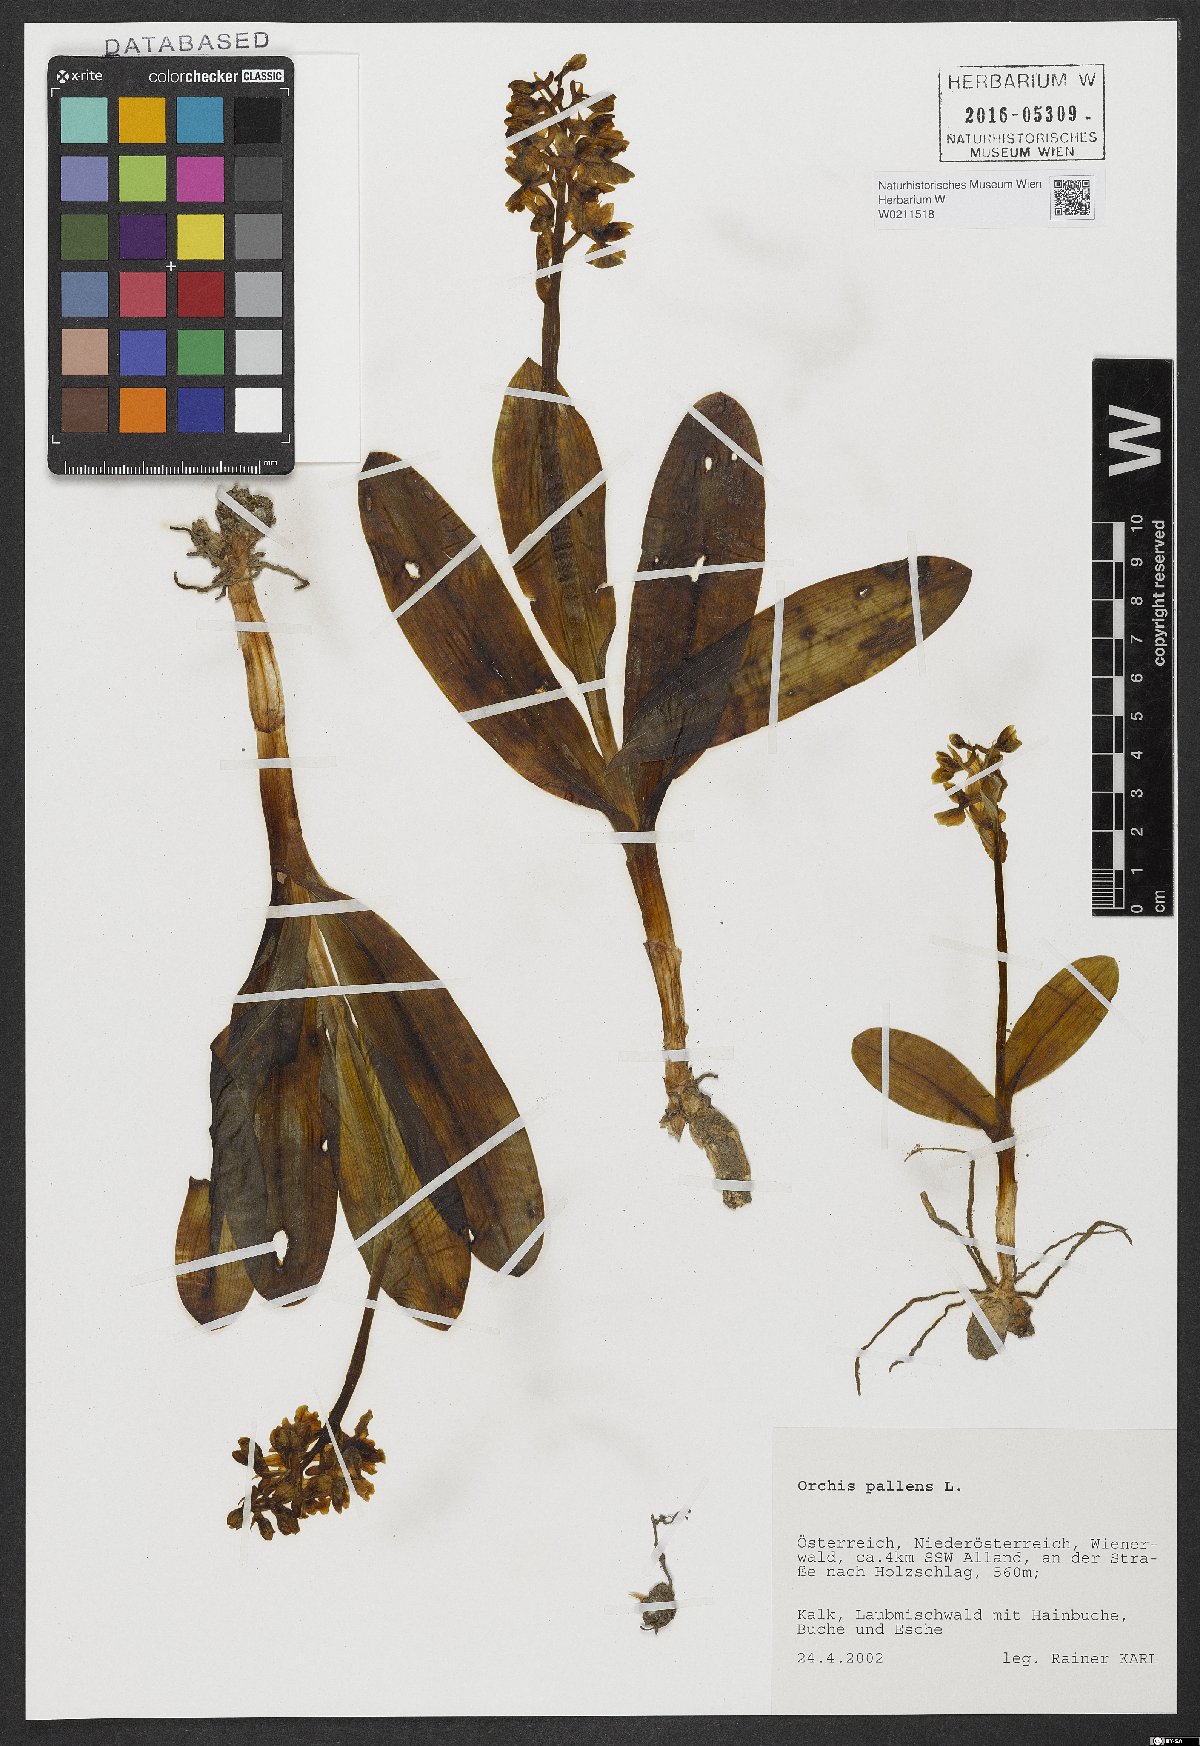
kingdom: Plantae
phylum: Tracheophyta
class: Liliopsida
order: Asparagales
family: Orchidaceae
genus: Orchis
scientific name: Orchis pallens
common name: Pale-flowered orchid
